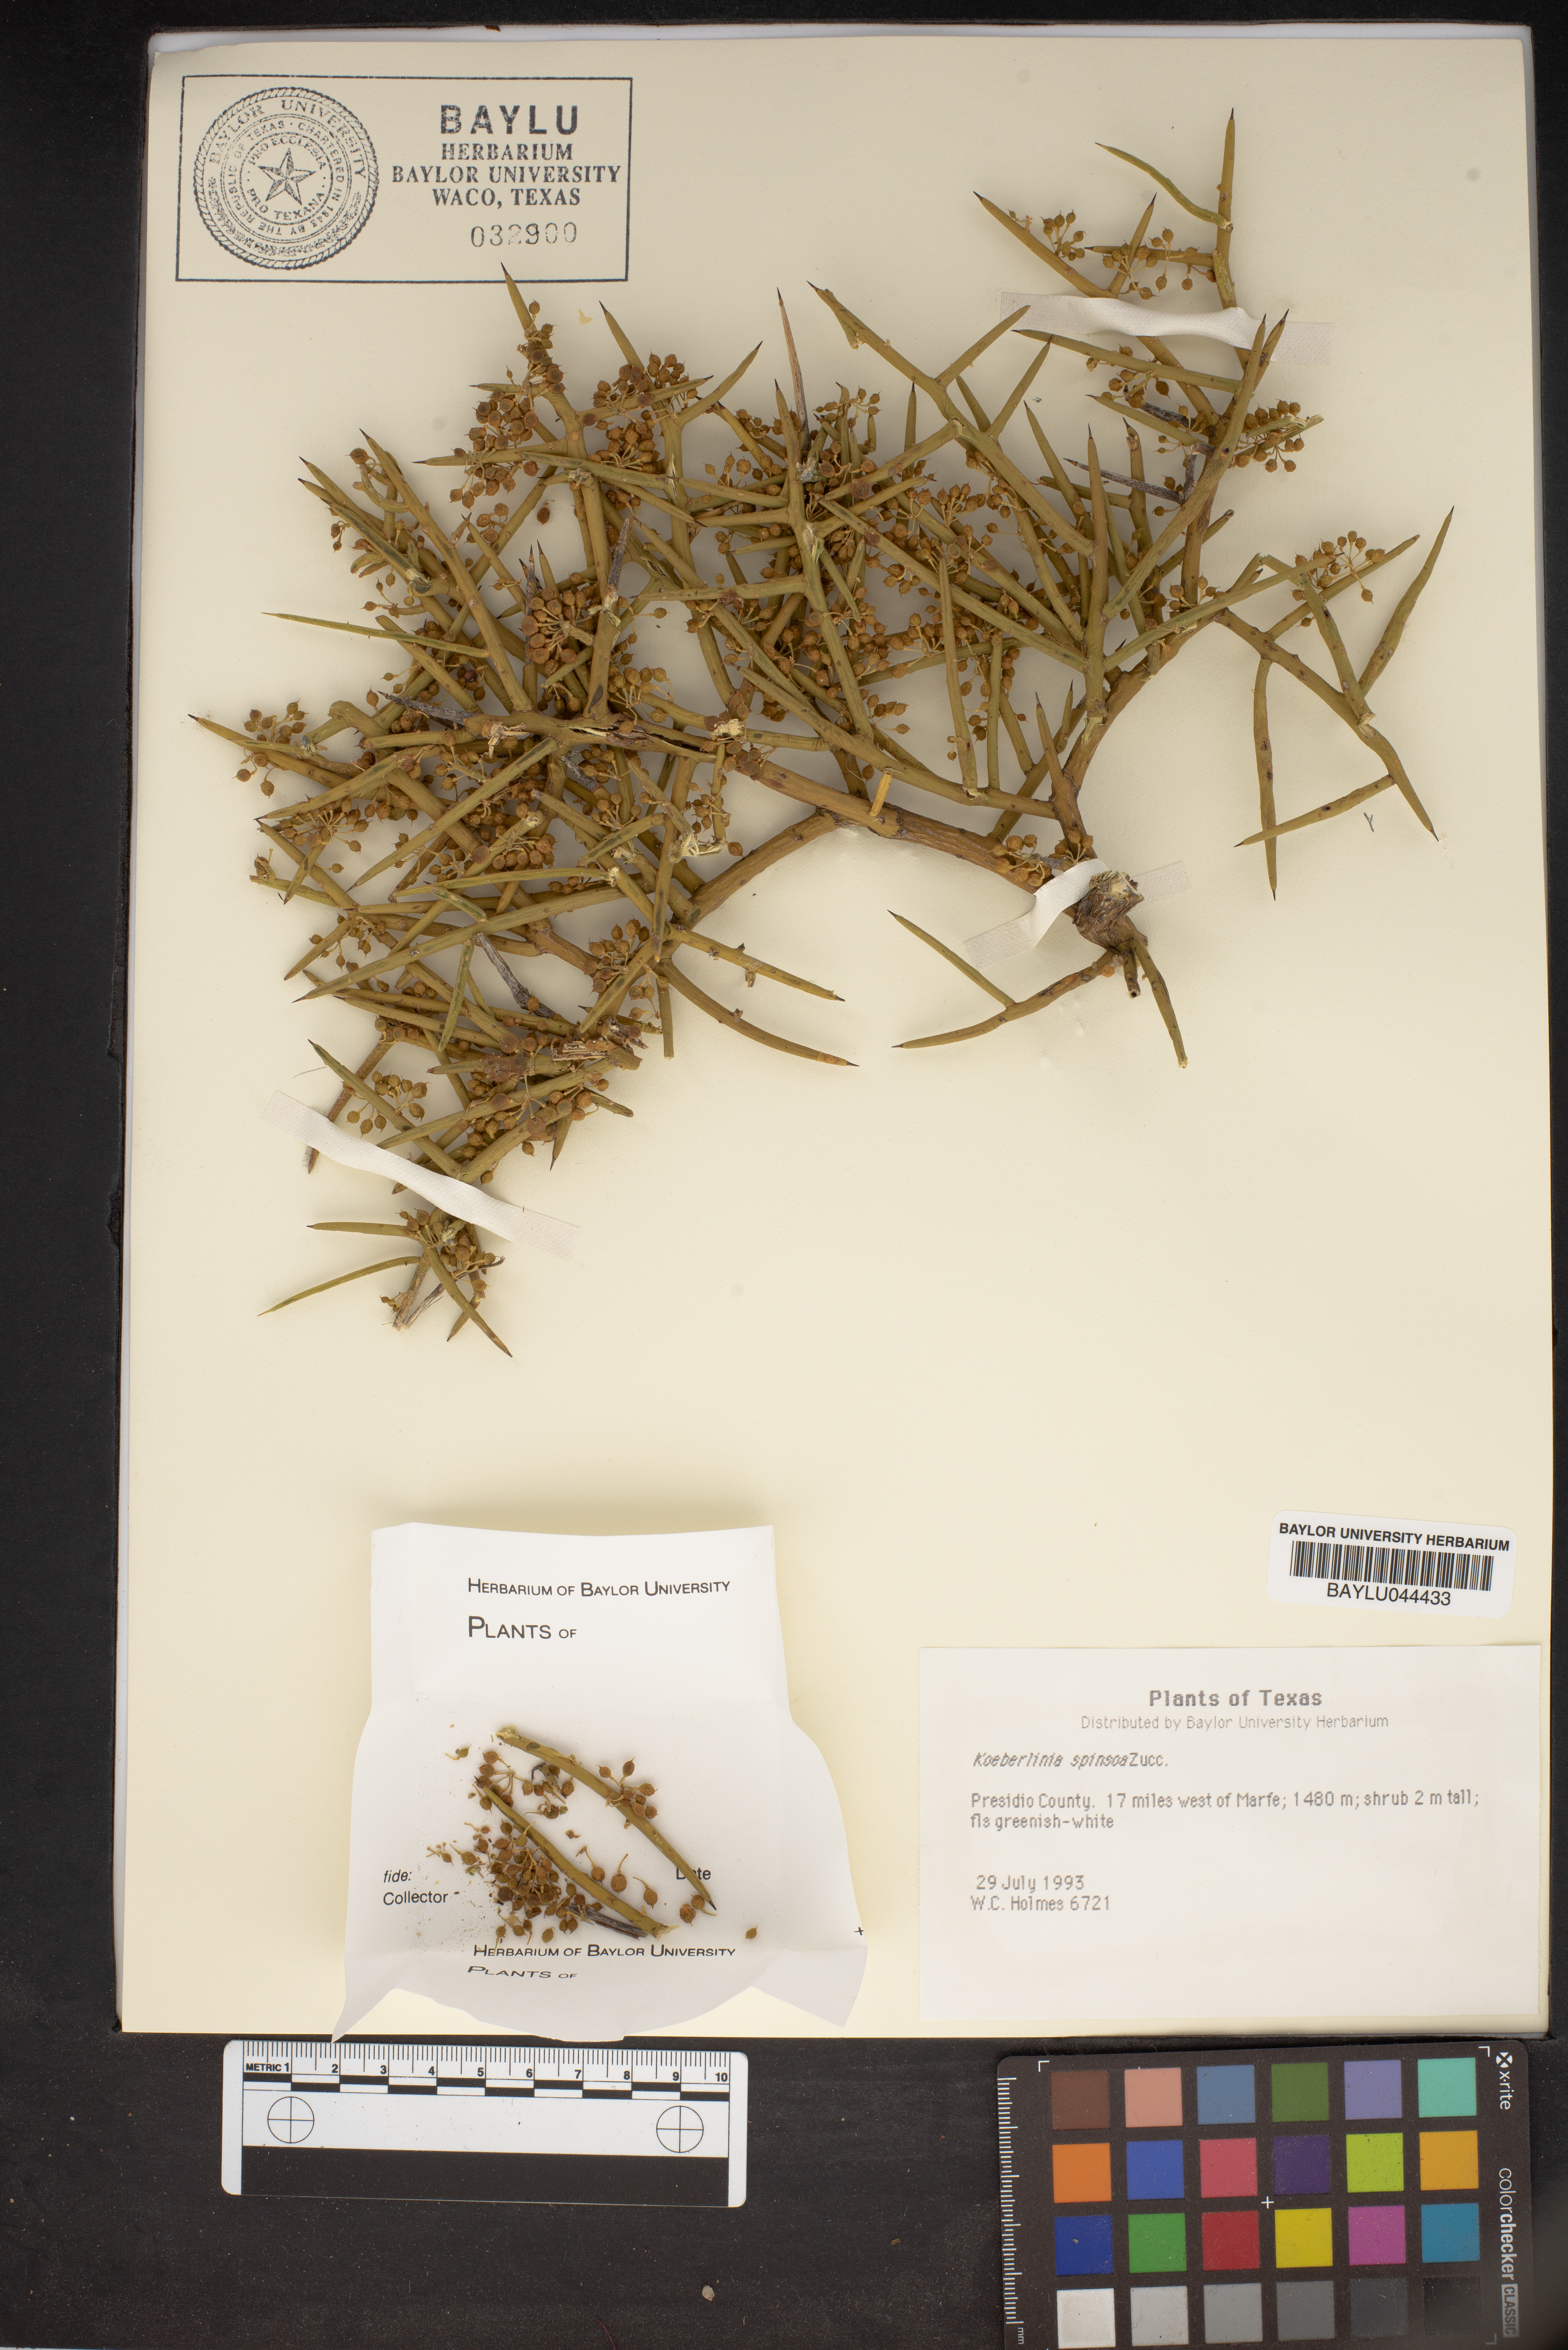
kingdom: Plantae
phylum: Tracheophyta
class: Magnoliopsida
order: Brassicales
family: Koeberliniaceae
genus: Koeberlinia
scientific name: Koeberlinia spinosa
